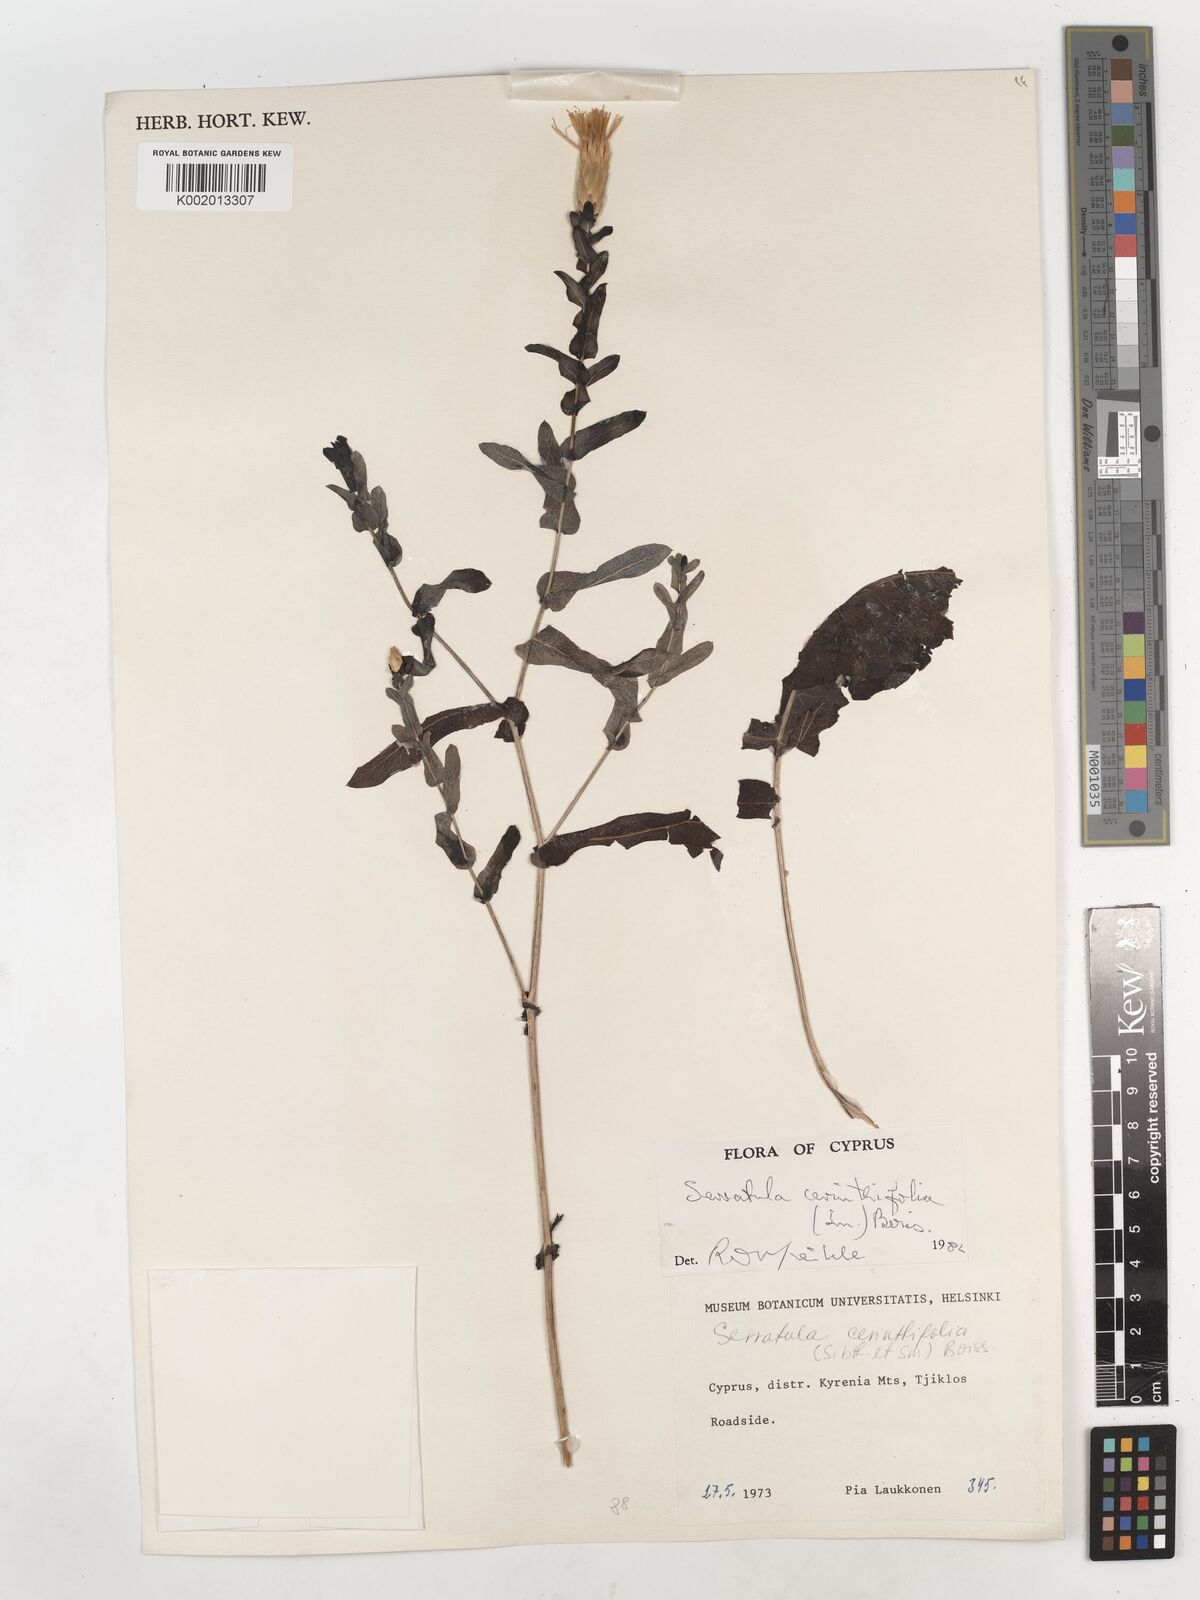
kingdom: Plantae
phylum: Tracheophyta
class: Magnoliopsida
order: Asterales
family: Asteraceae
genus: Klasea
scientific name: Klasea cerinthifolia
